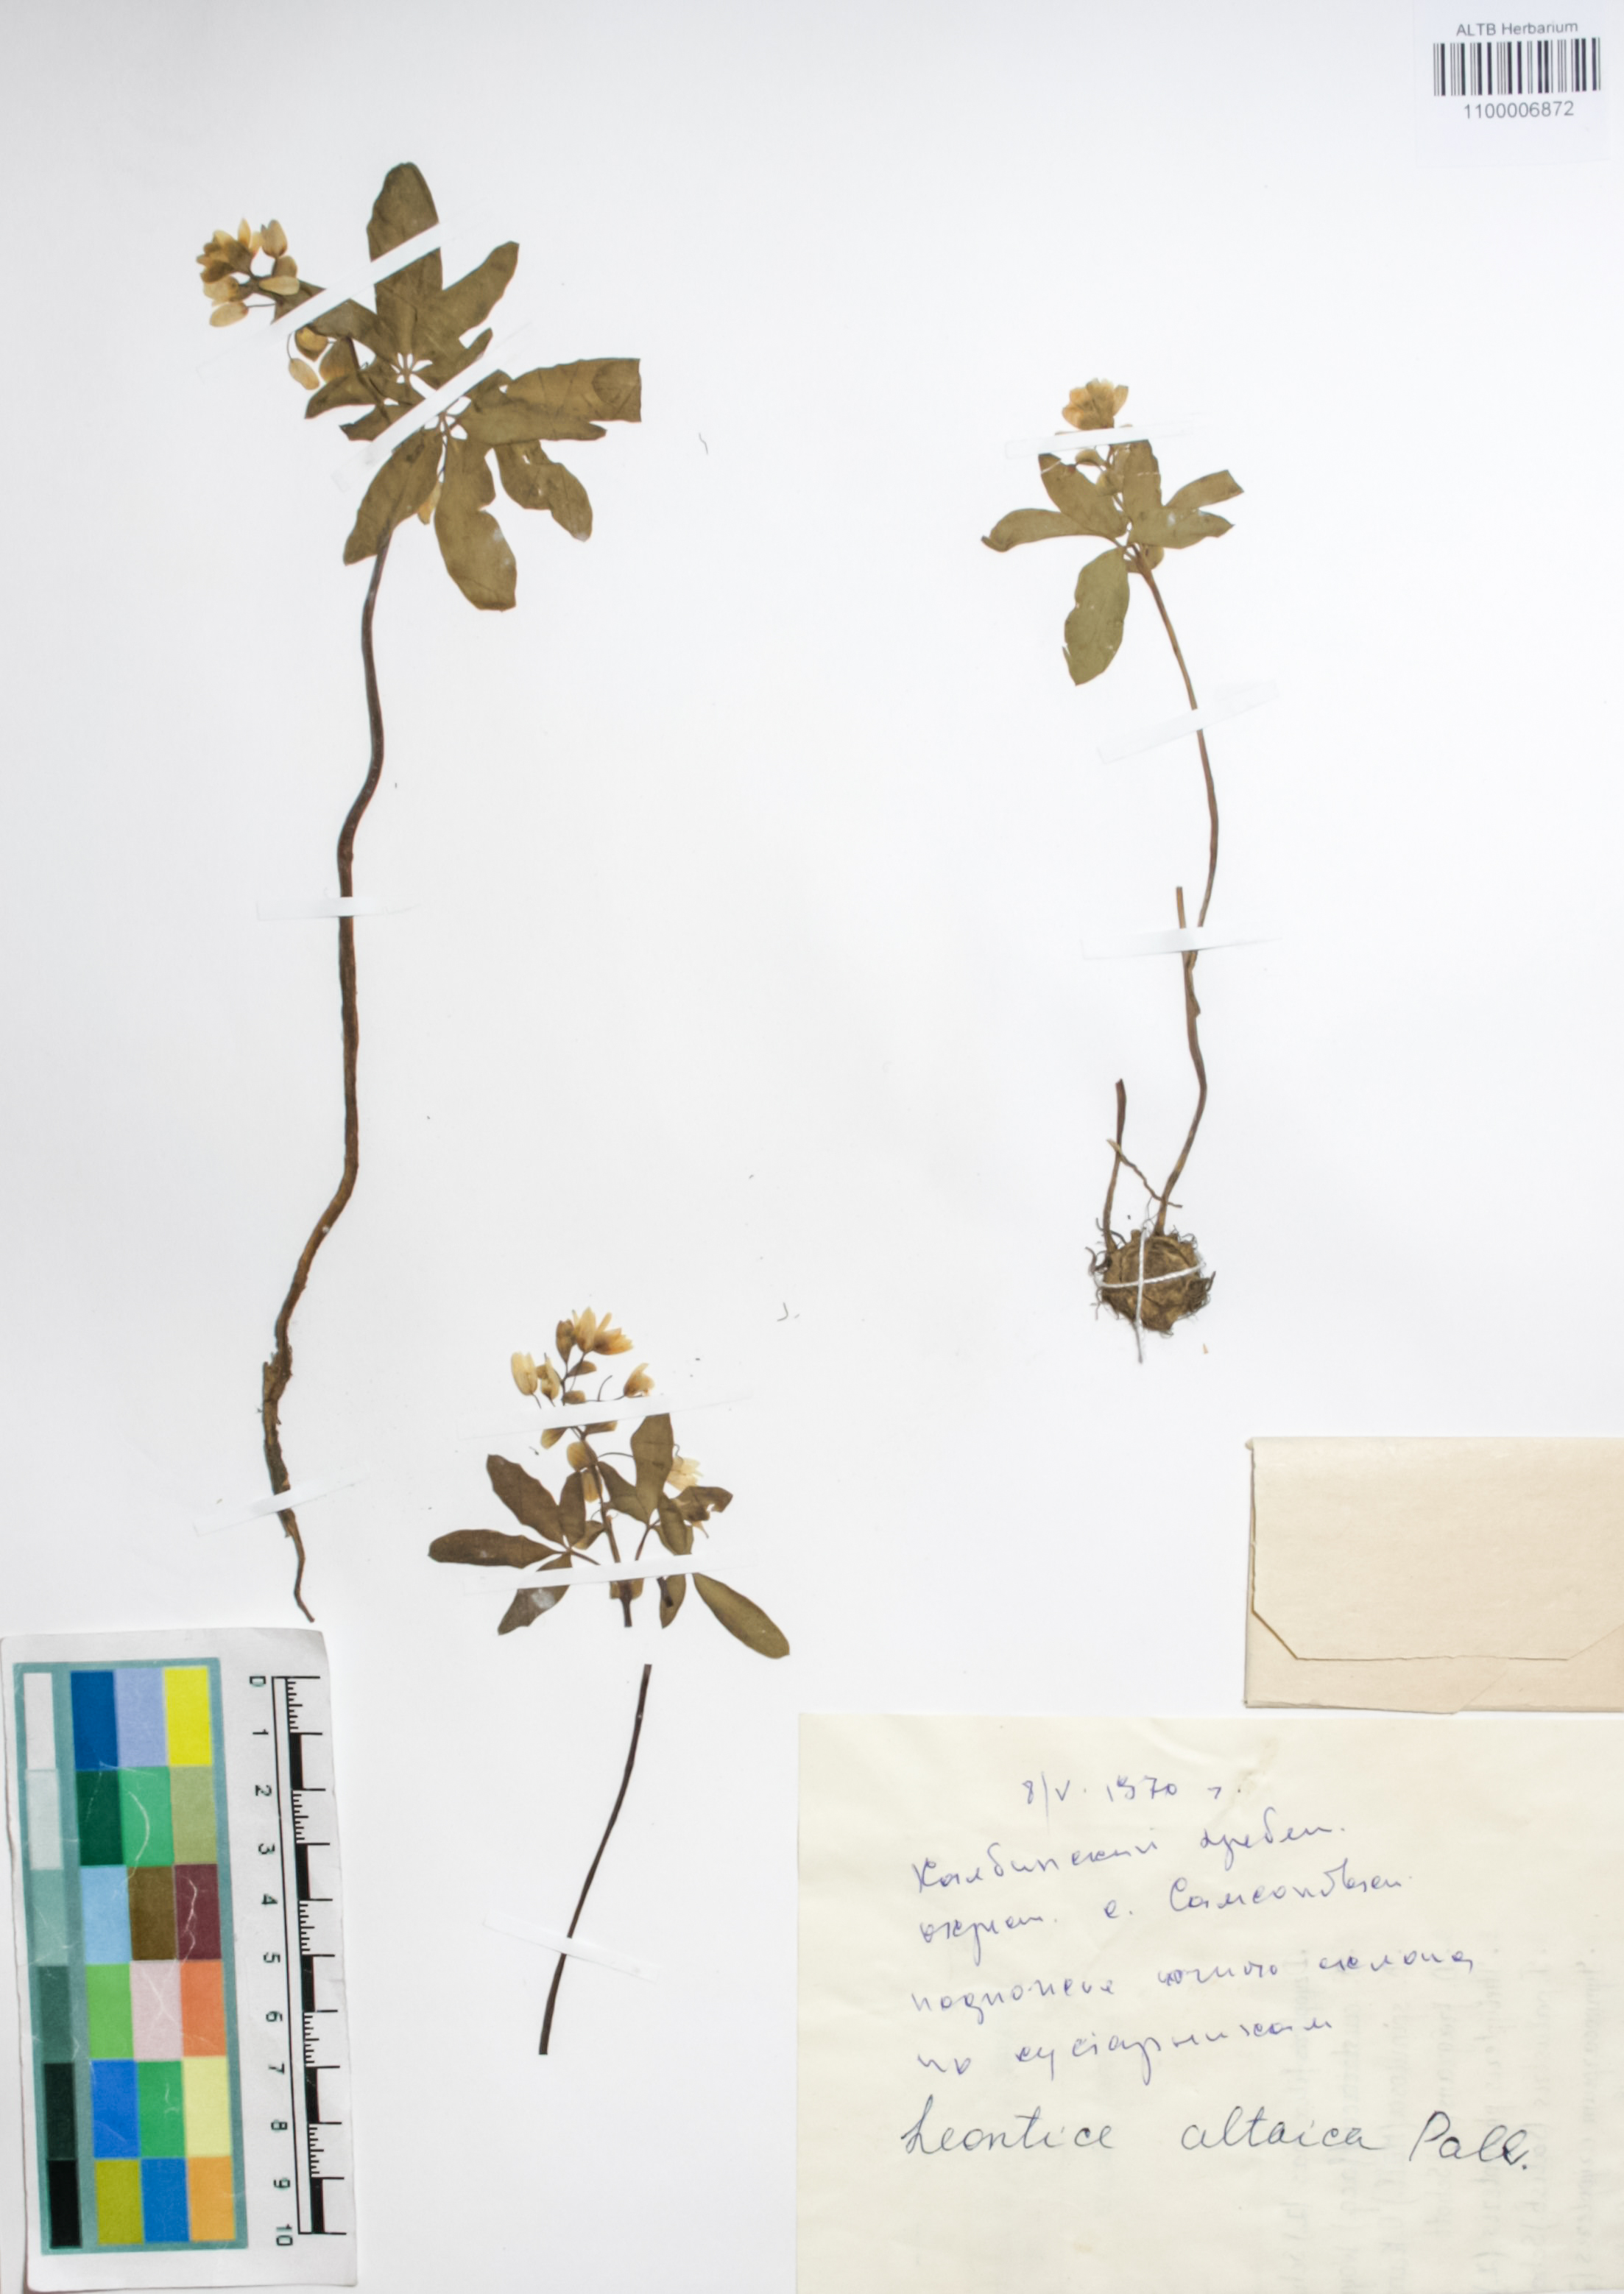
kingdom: Plantae
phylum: Tracheophyta
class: Magnoliopsida
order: Ranunculales
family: Berberidaceae
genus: Gymnospermium
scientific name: Gymnospermium altaicum
